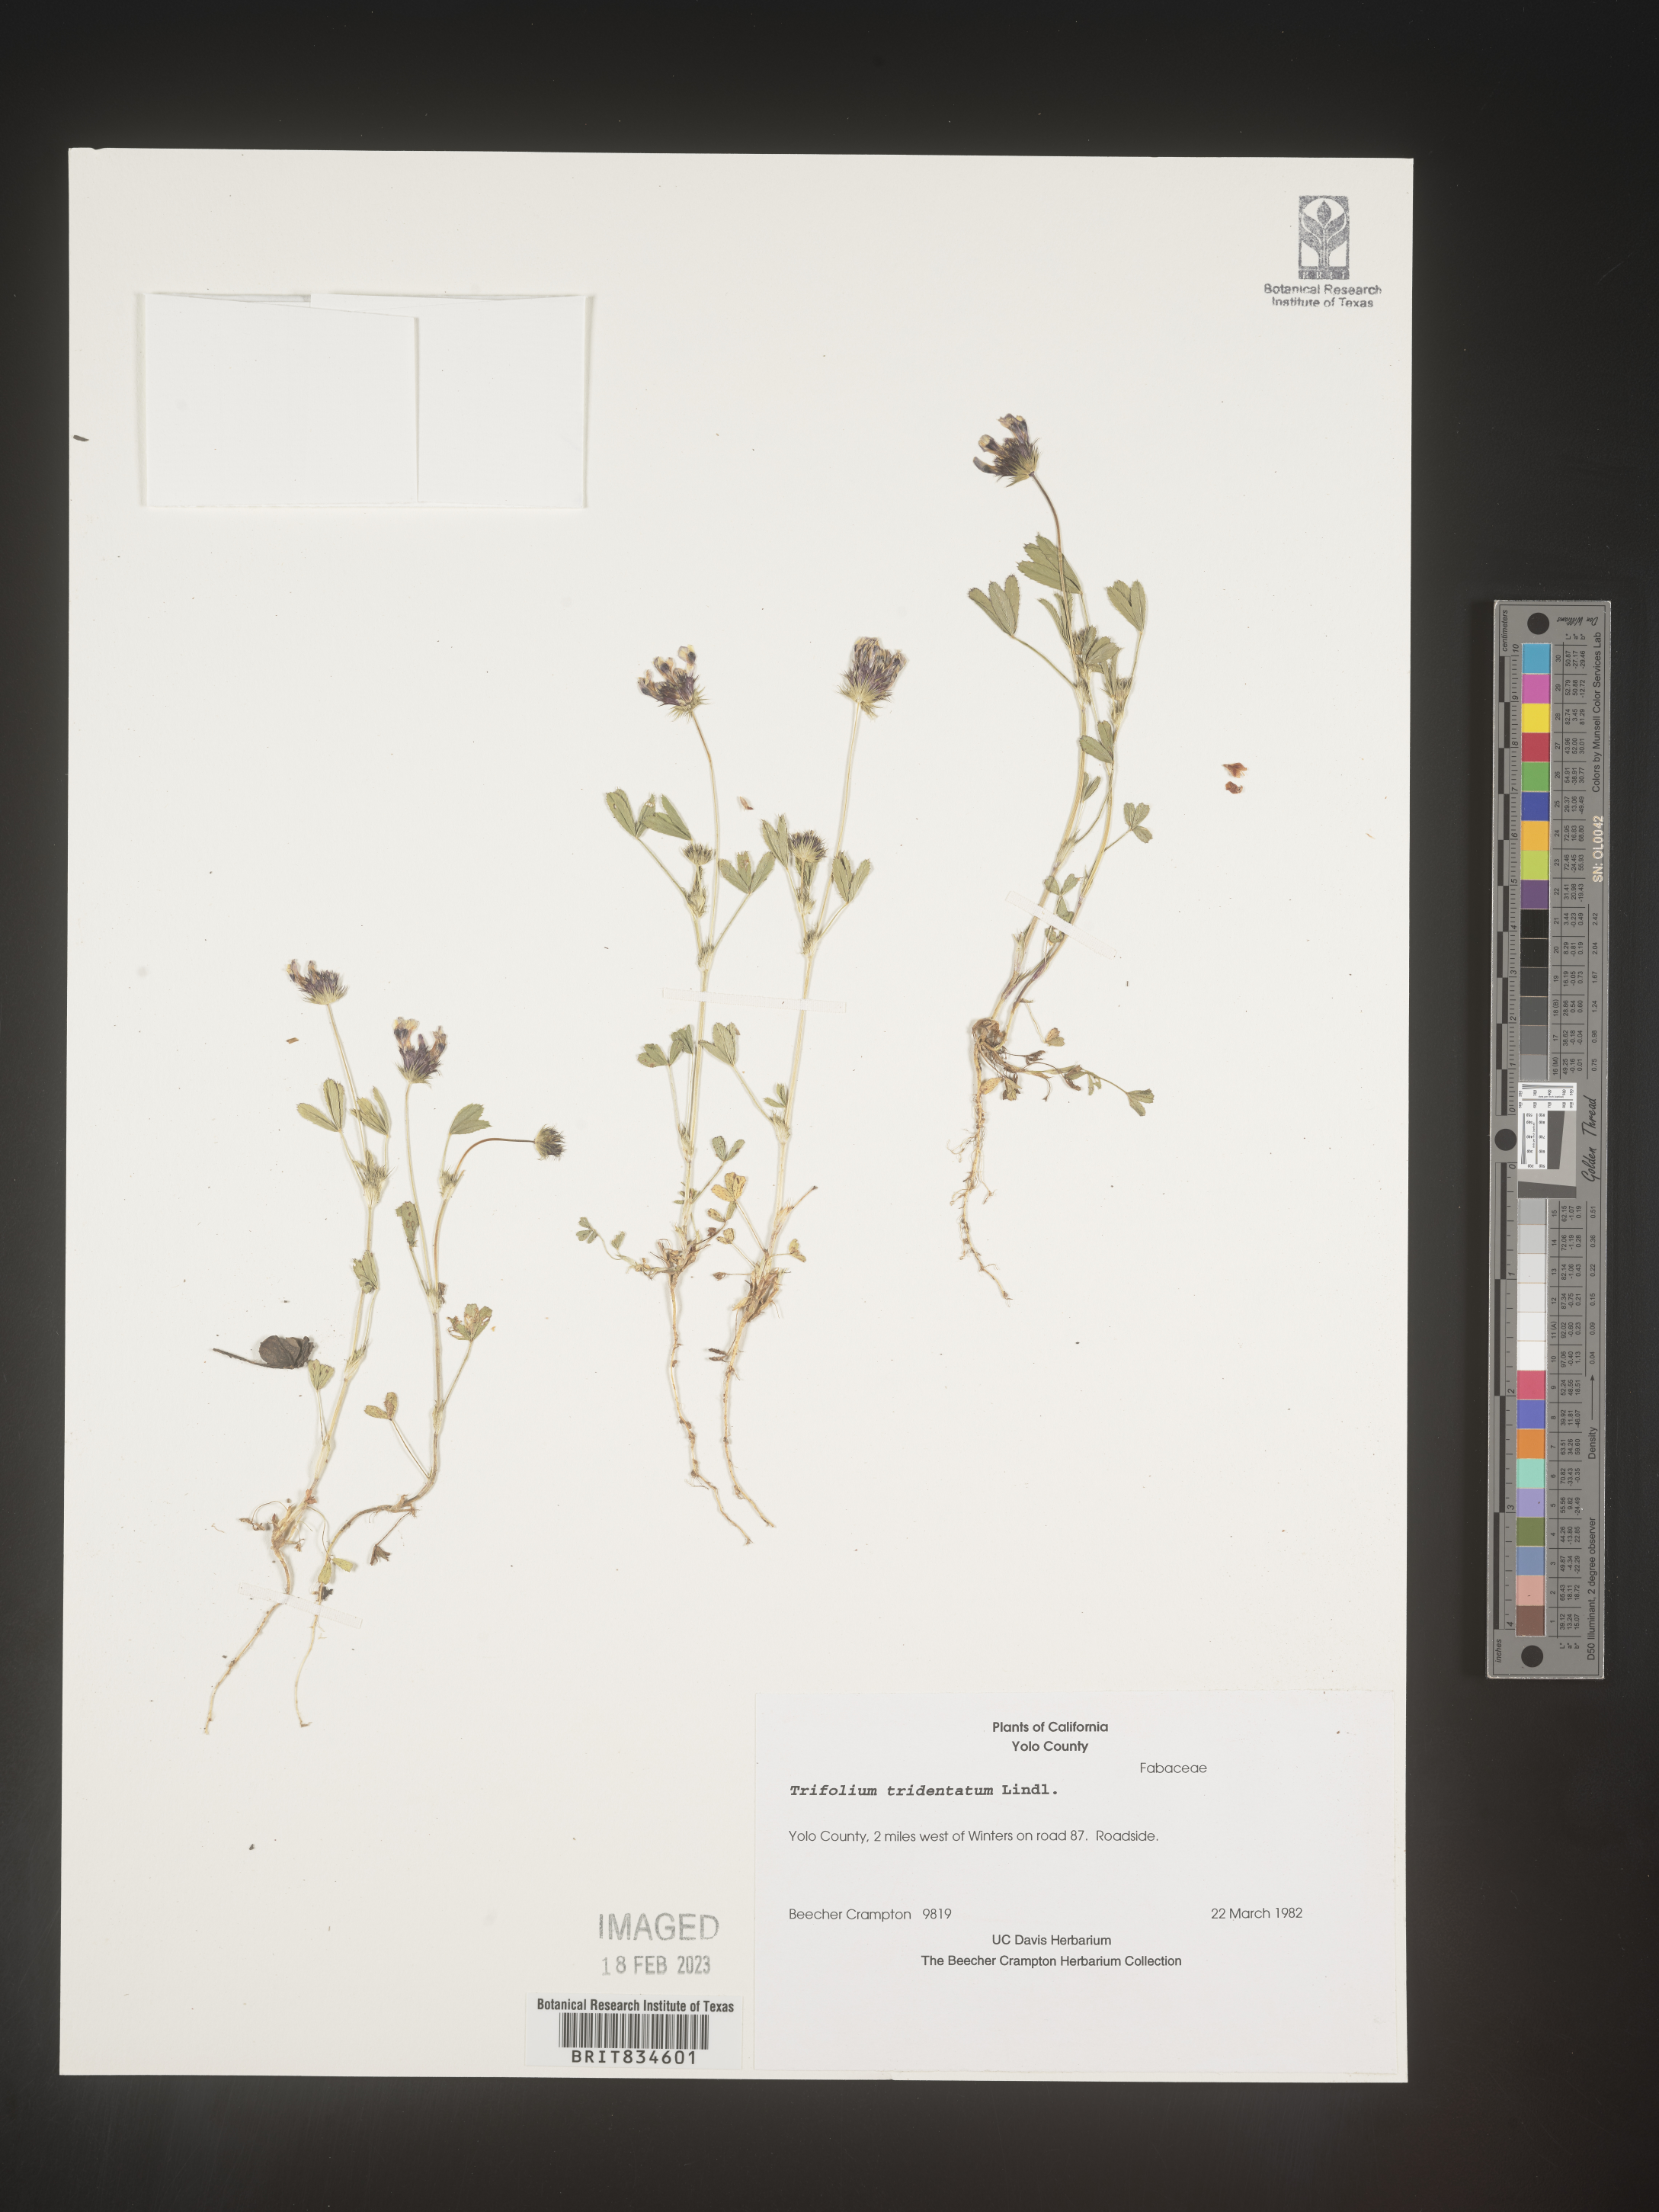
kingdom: Plantae
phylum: Tracheophyta
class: Magnoliopsida
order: Fabales
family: Fabaceae
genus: Trifolium
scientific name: Trifolium
